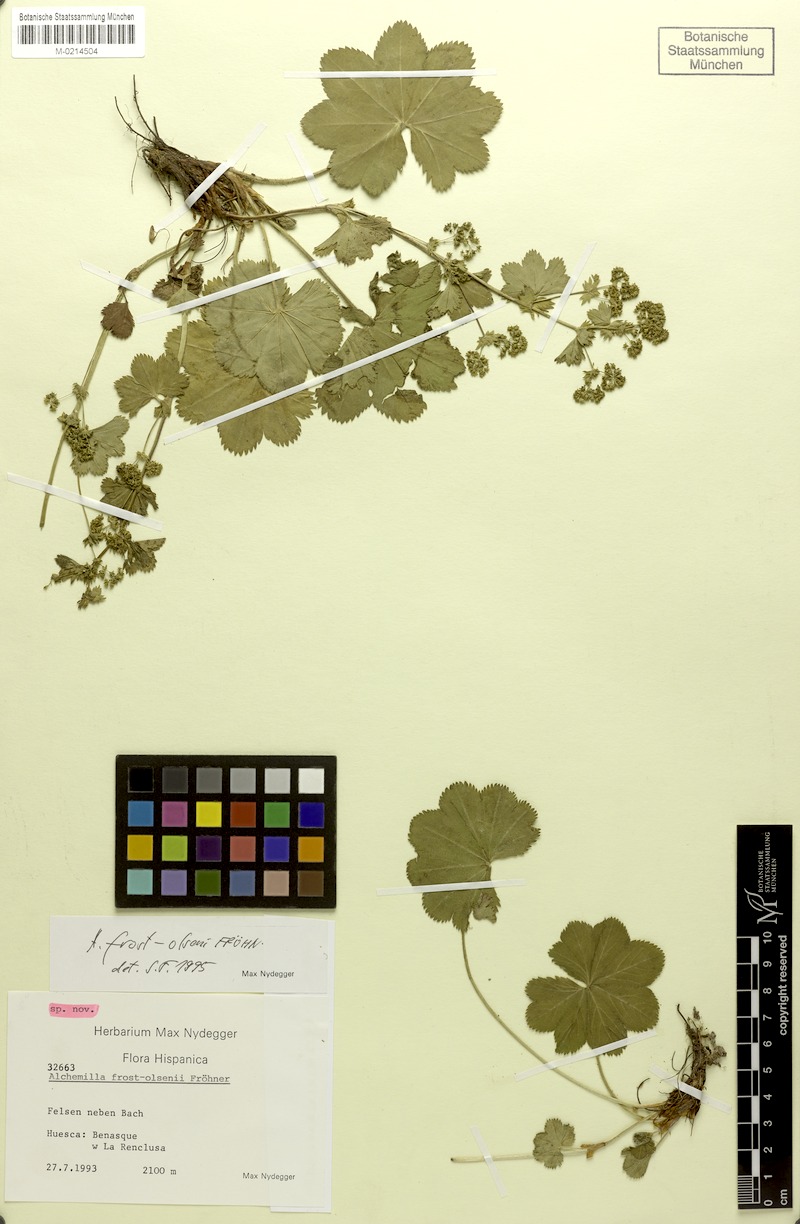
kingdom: Plantae
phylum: Tracheophyta
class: Magnoliopsida
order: Rosales
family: Rosaceae
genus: Alchemilla
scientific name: Alchemilla frost-olsenii
